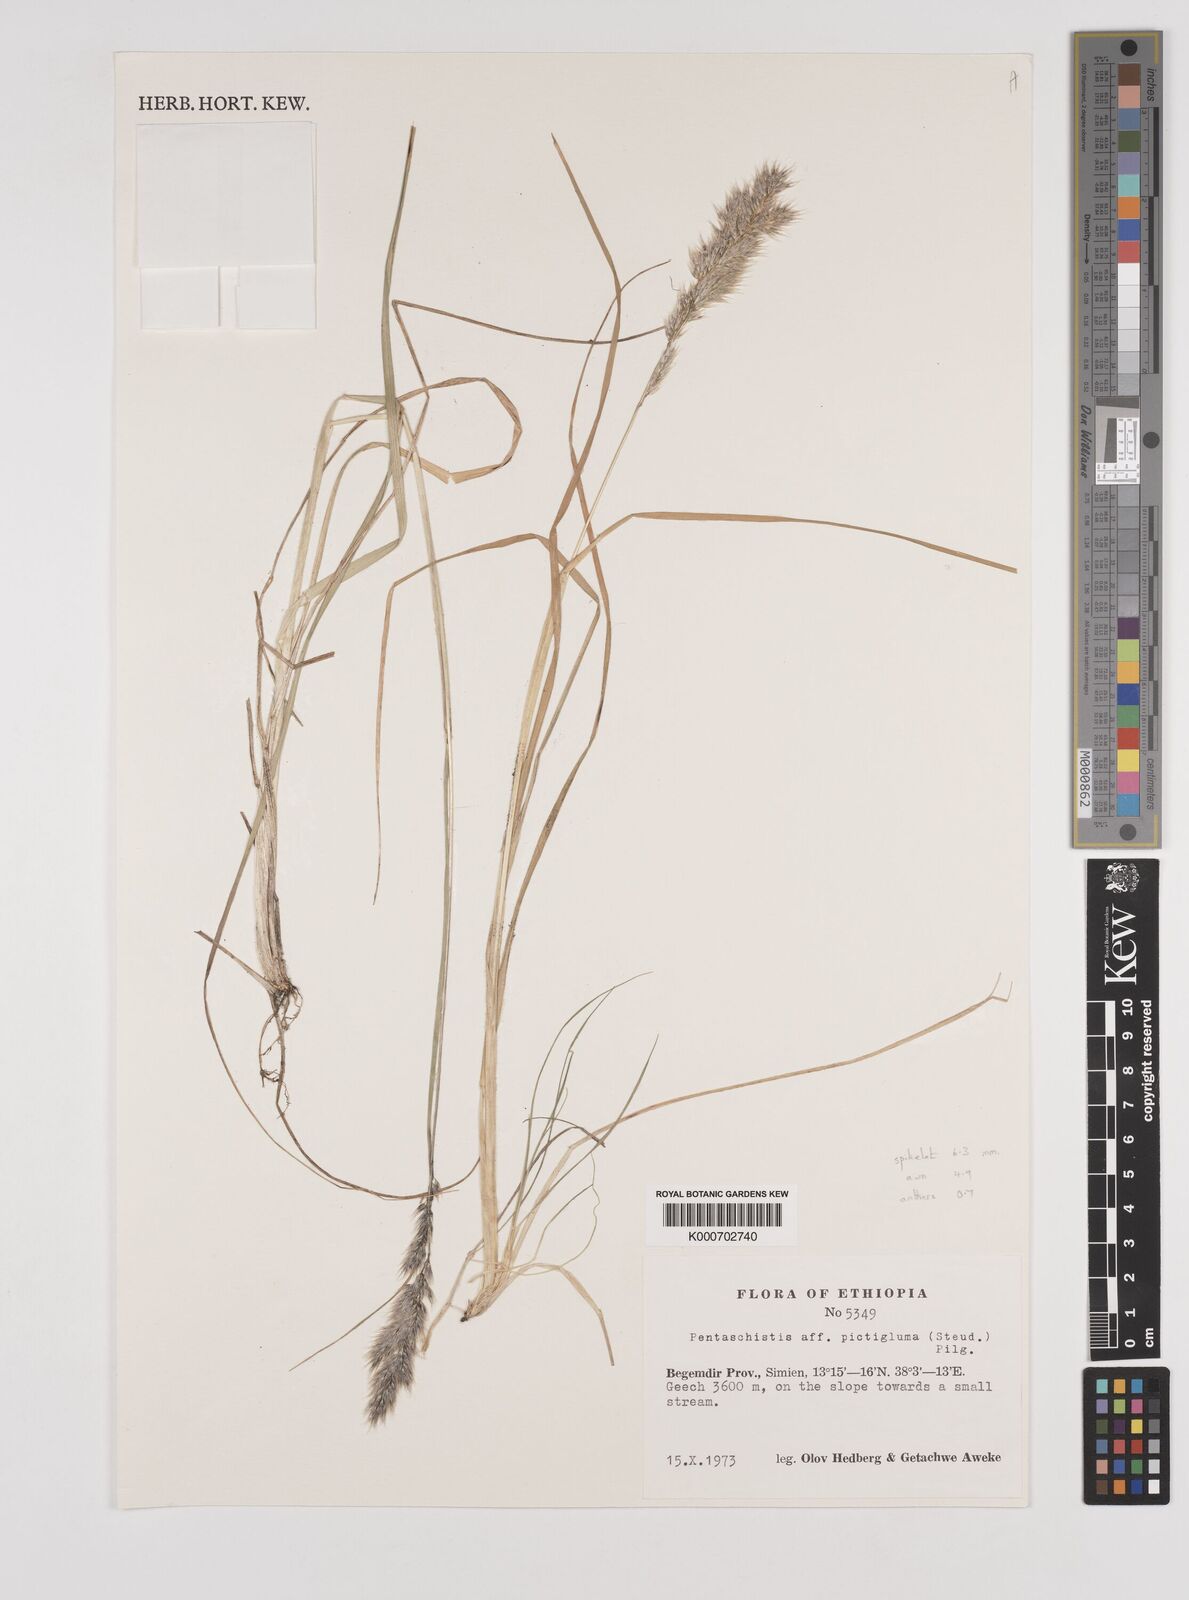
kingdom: Plantae
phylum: Tracheophyta
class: Liliopsida
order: Poales
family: Poaceae
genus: Pentameris
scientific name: Pentameris pictigluma
